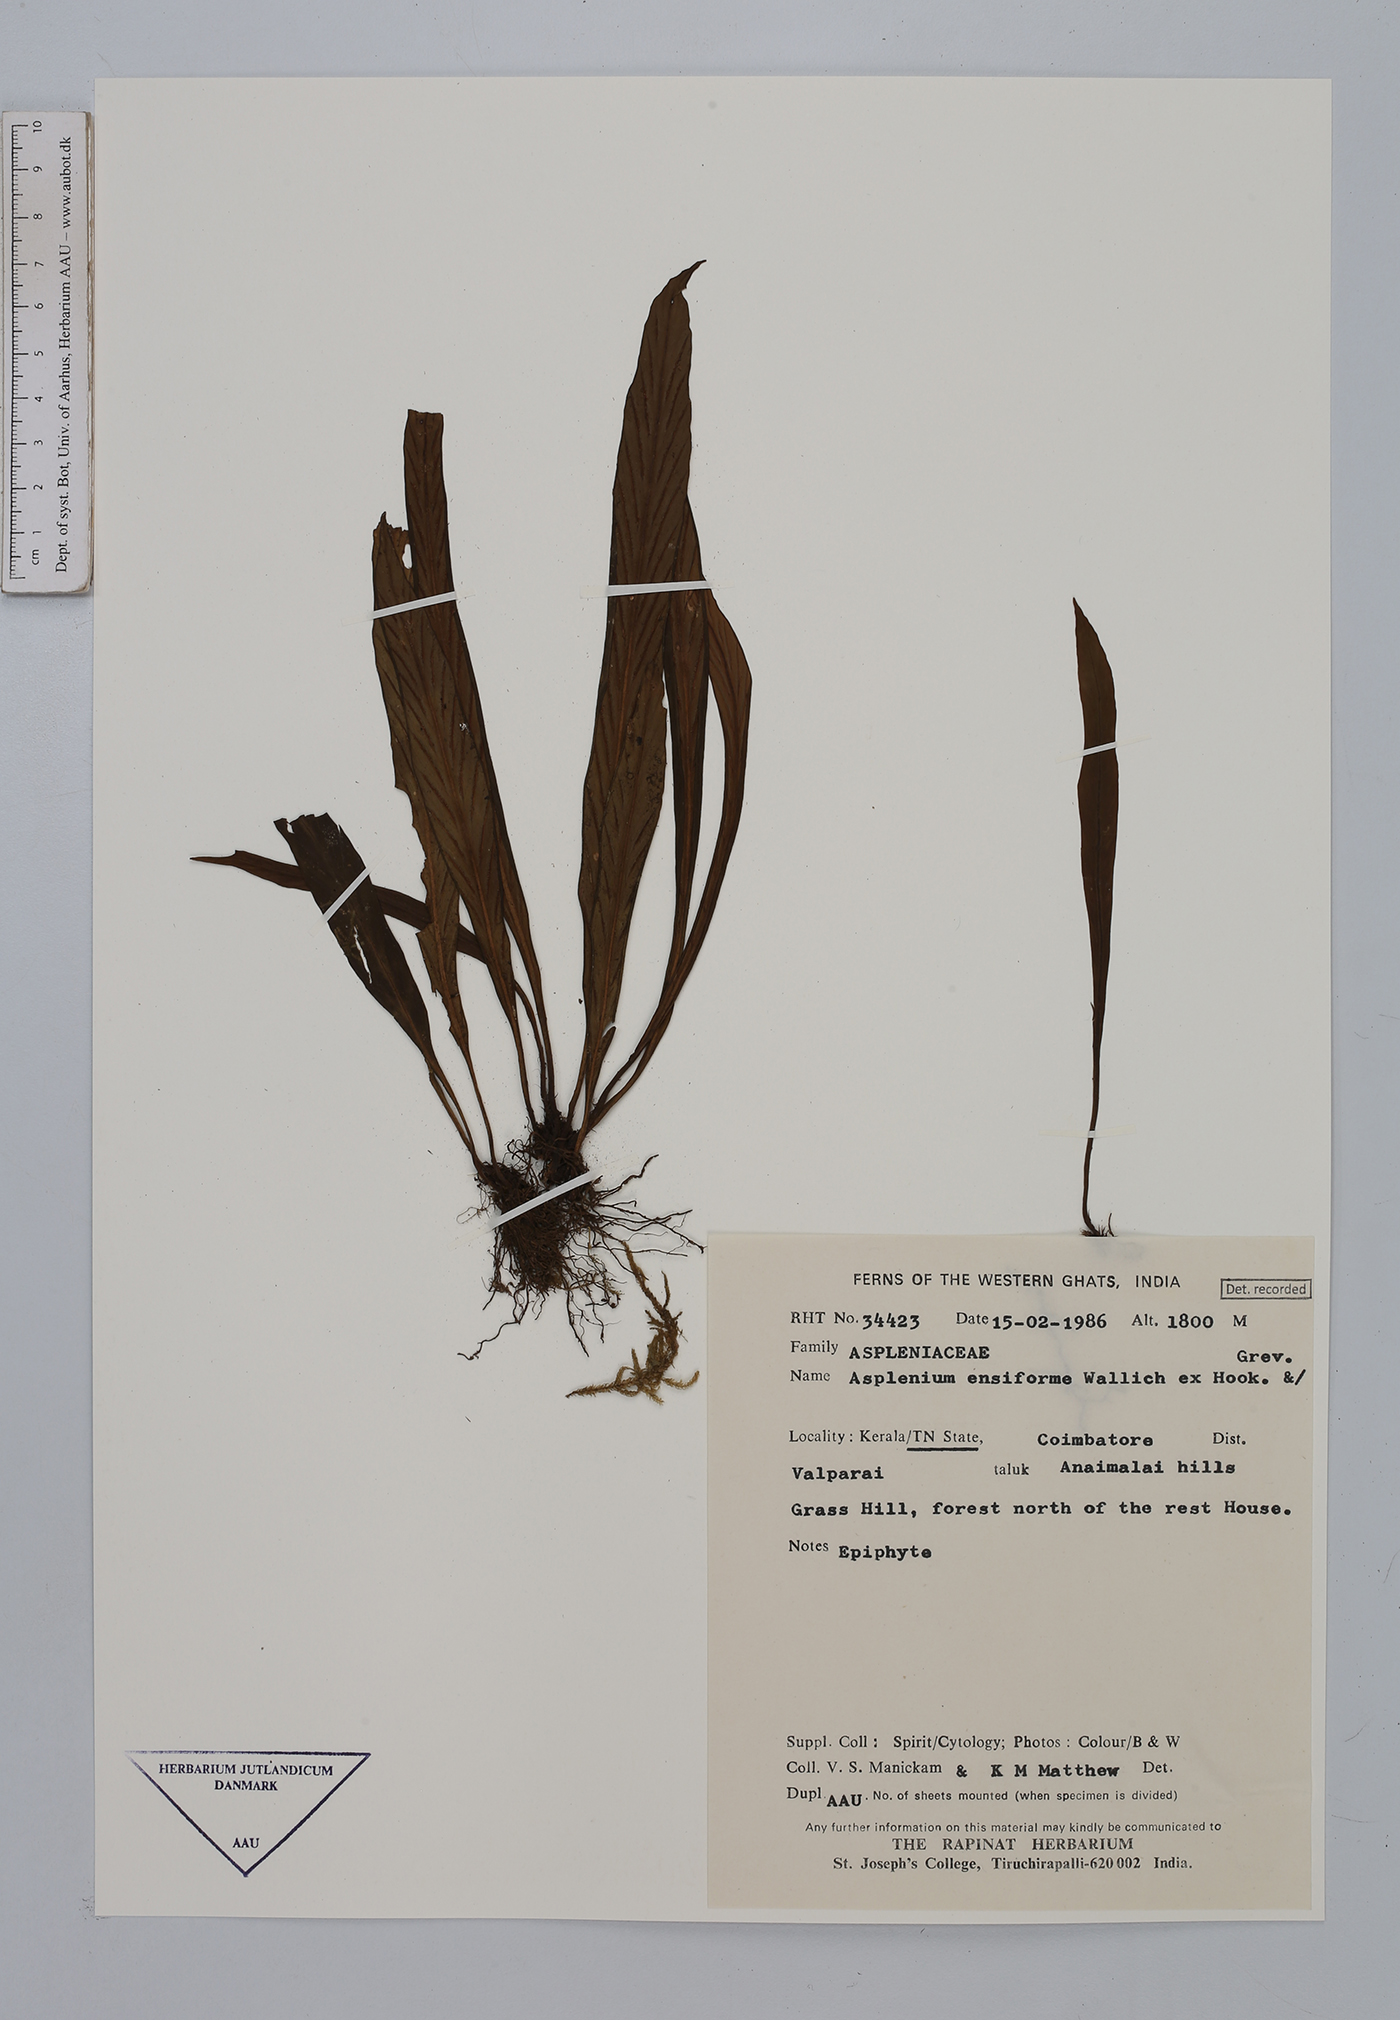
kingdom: Plantae
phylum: Tracheophyta
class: Polypodiopsida
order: Polypodiales
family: Aspleniaceae
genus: Asplenium
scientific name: Asplenium ensiforme
